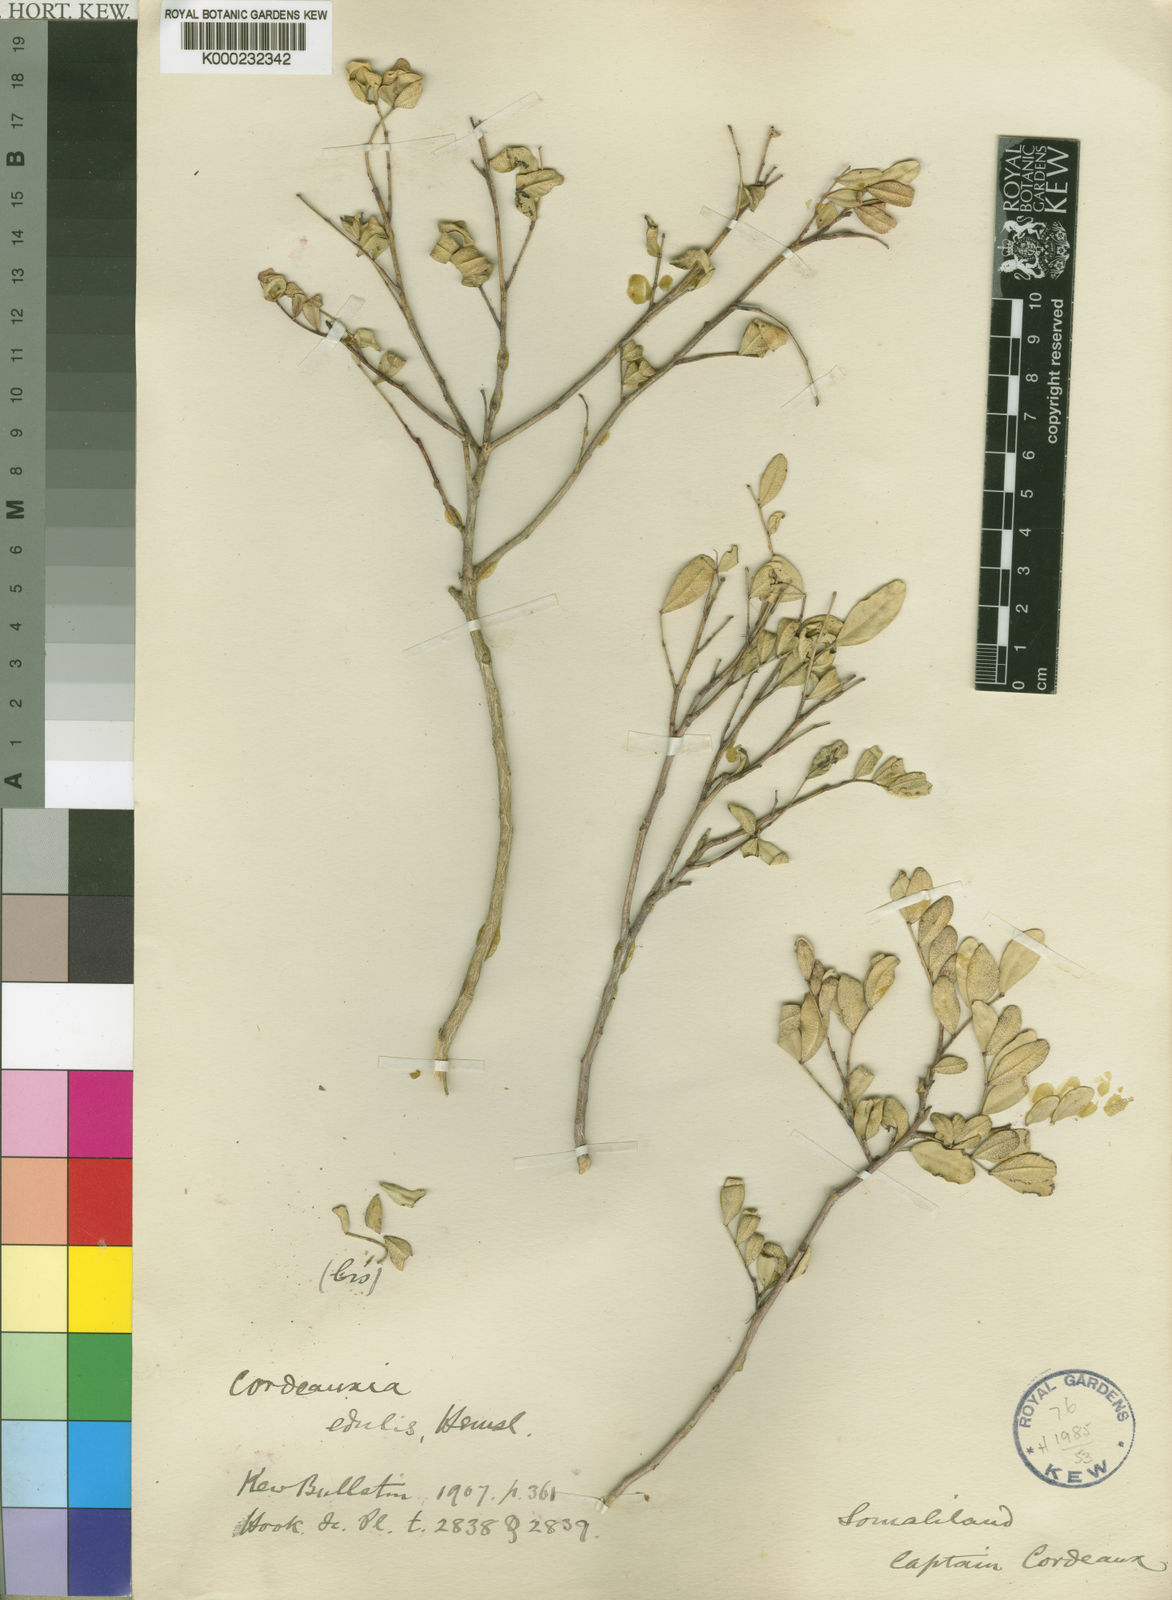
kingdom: Plantae
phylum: Tracheophyta
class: Magnoliopsida
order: Fabales
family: Fabaceae
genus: Cordeauxia
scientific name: Cordeauxia edulis
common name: Yeheb-nut-bush
